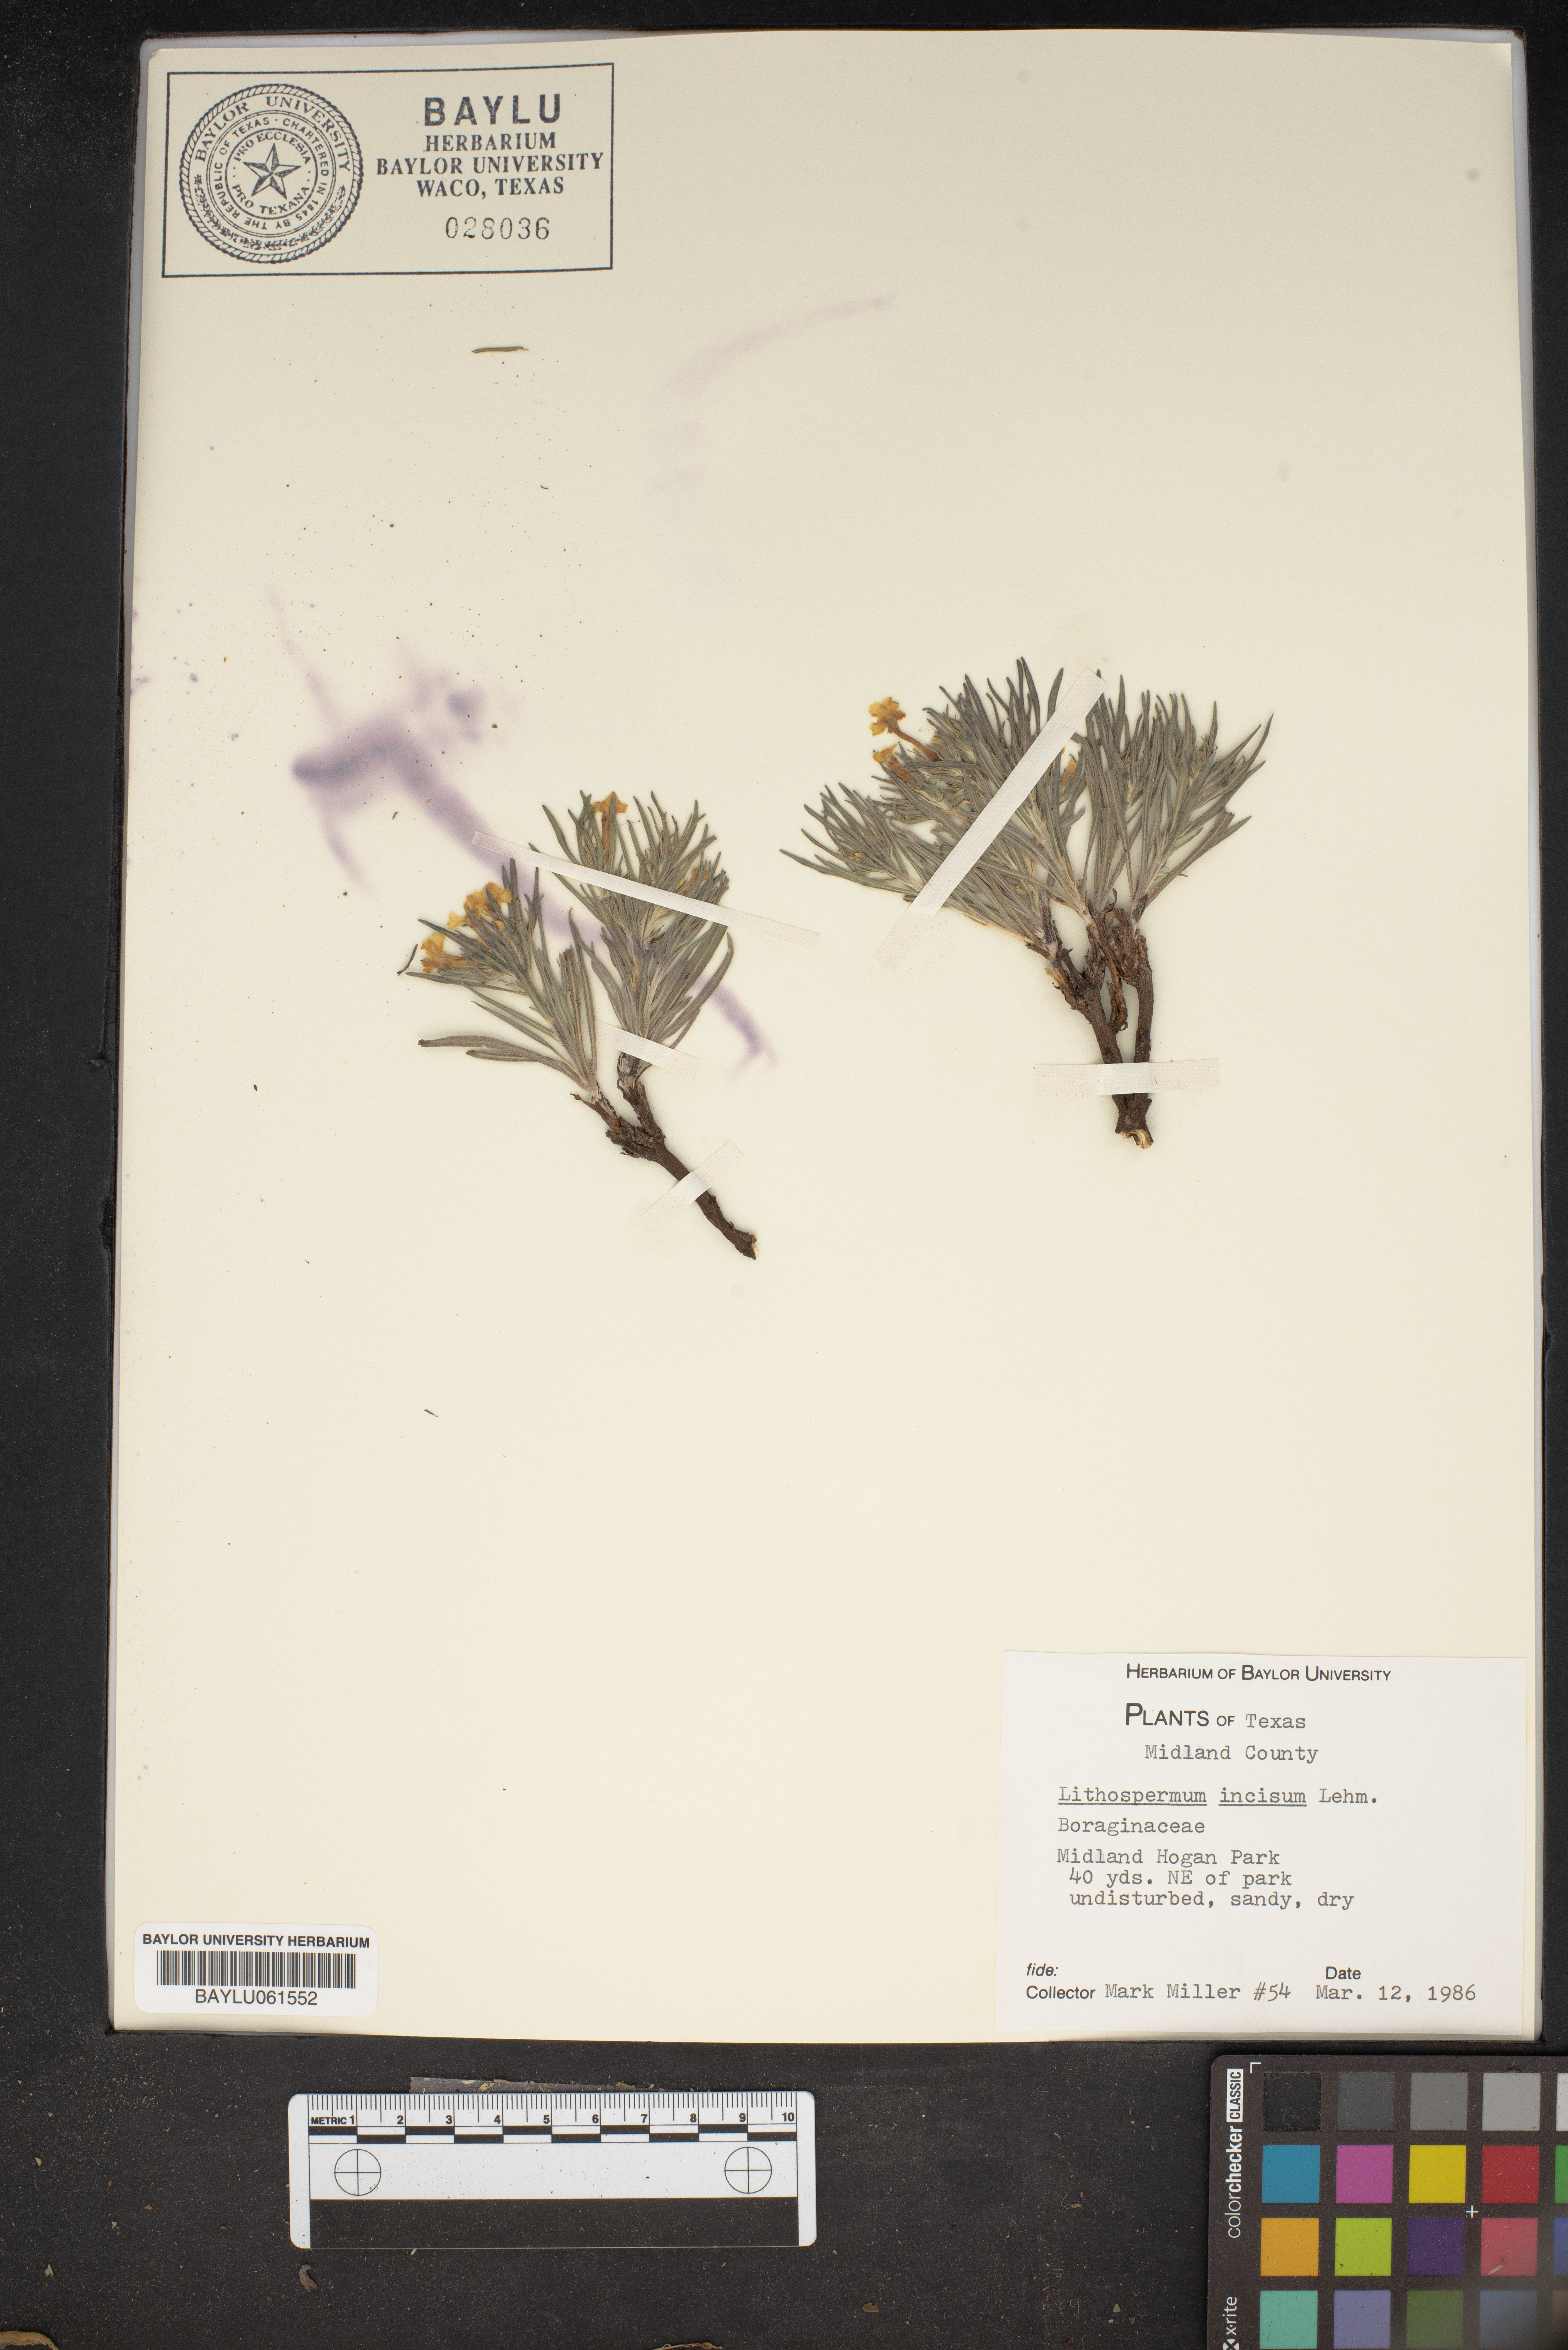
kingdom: Plantae
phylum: Tracheophyta
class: Magnoliopsida
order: Boraginales
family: Boraginaceae
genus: Lithospermum
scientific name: Lithospermum incisum
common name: Fringed gromwell
